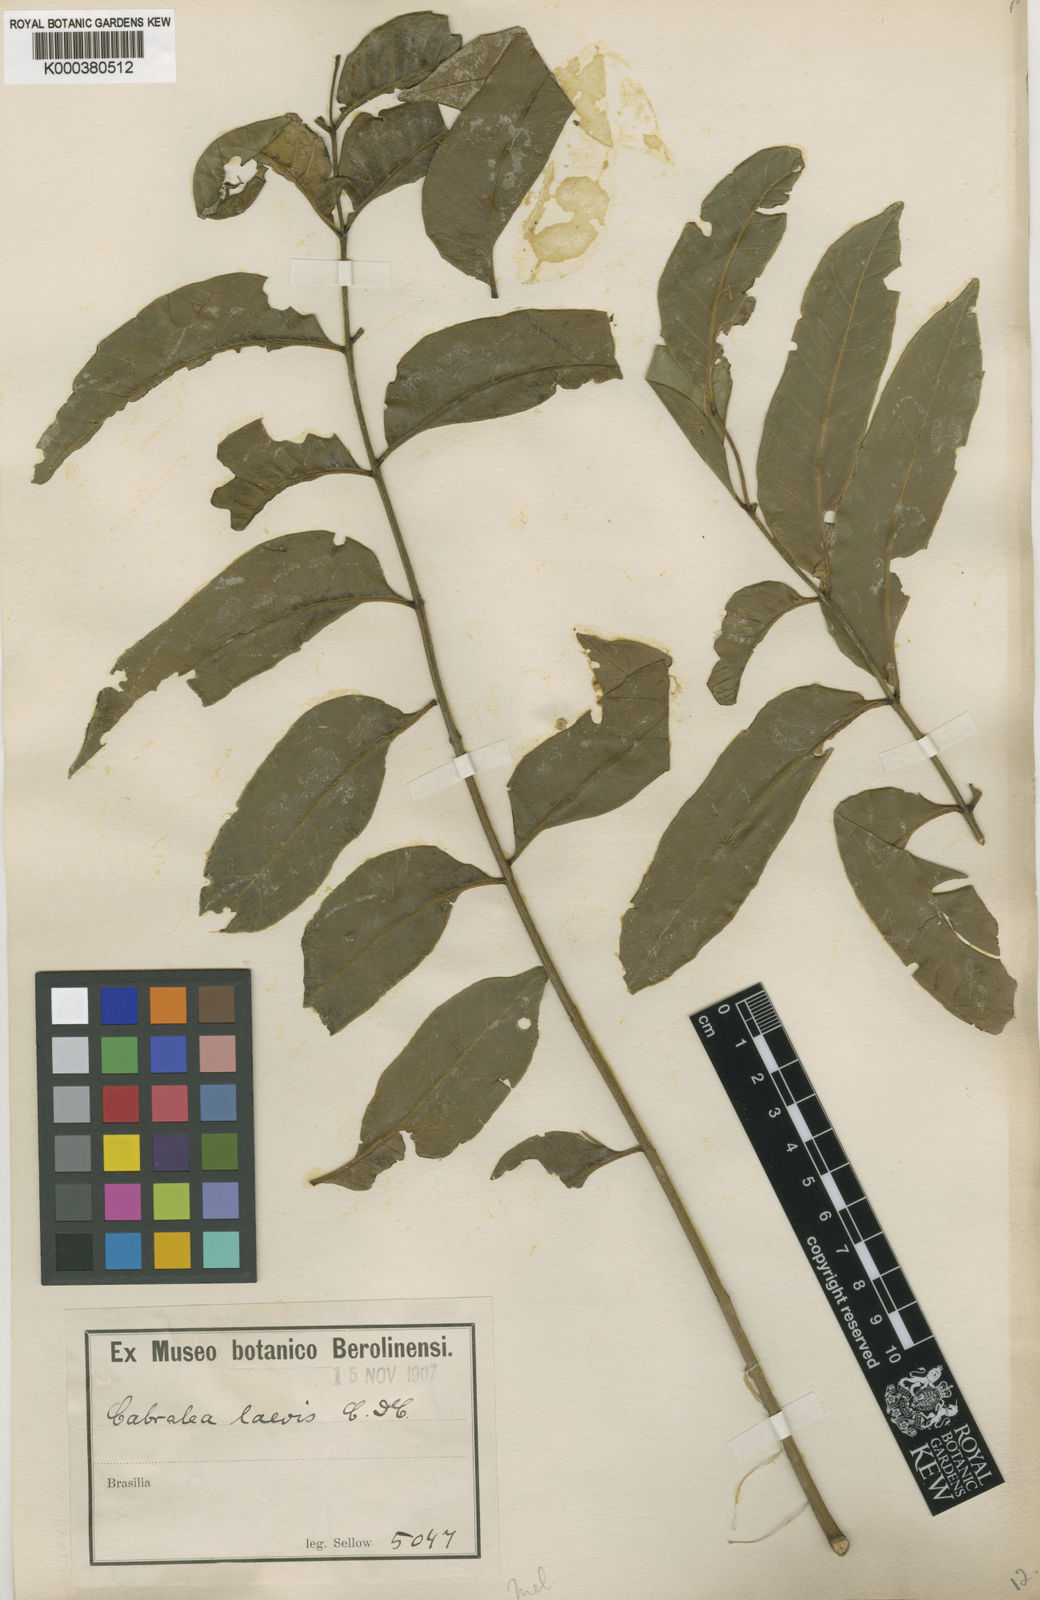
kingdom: Plantae
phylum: Tracheophyta
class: Magnoliopsida
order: Sapindales
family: Meliaceae
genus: Cabralea
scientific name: Cabralea canjerana
